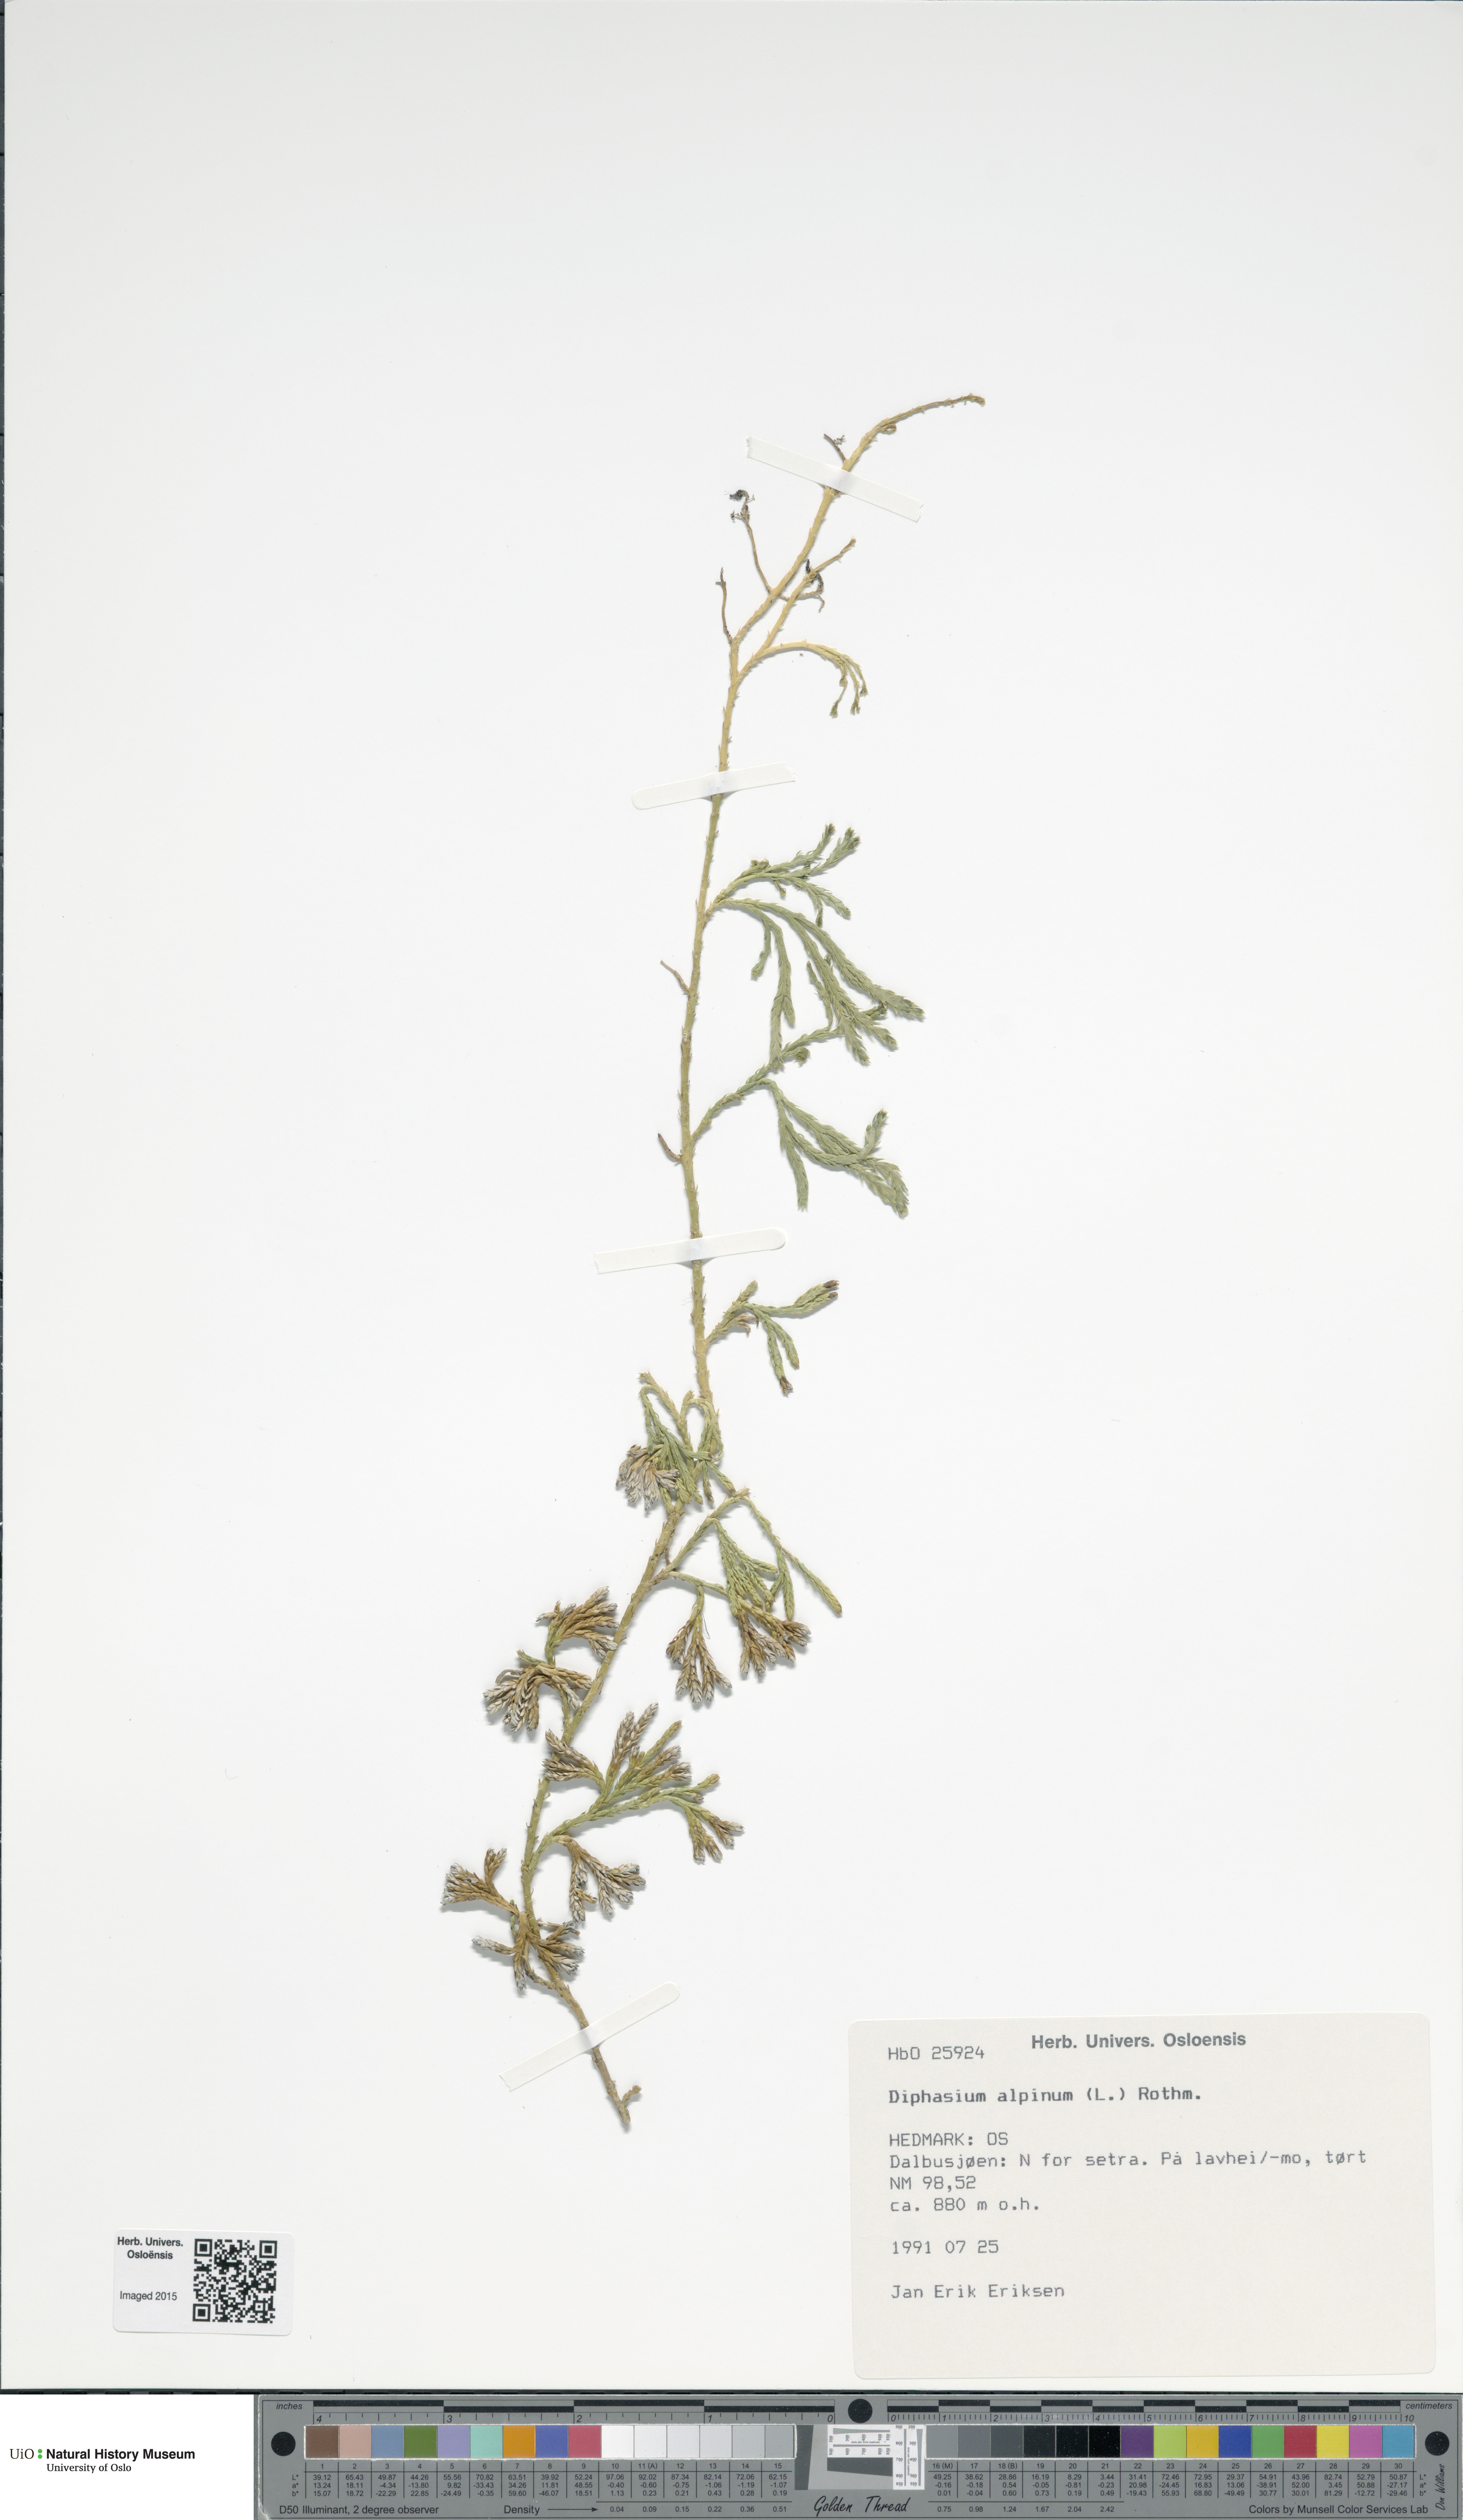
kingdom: Plantae
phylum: Tracheophyta
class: Lycopodiopsida
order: Lycopodiales
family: Lycopodiaceae
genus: Diphasiastrum
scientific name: Diphasiastrum alpinum
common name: Alpine clubmoss
